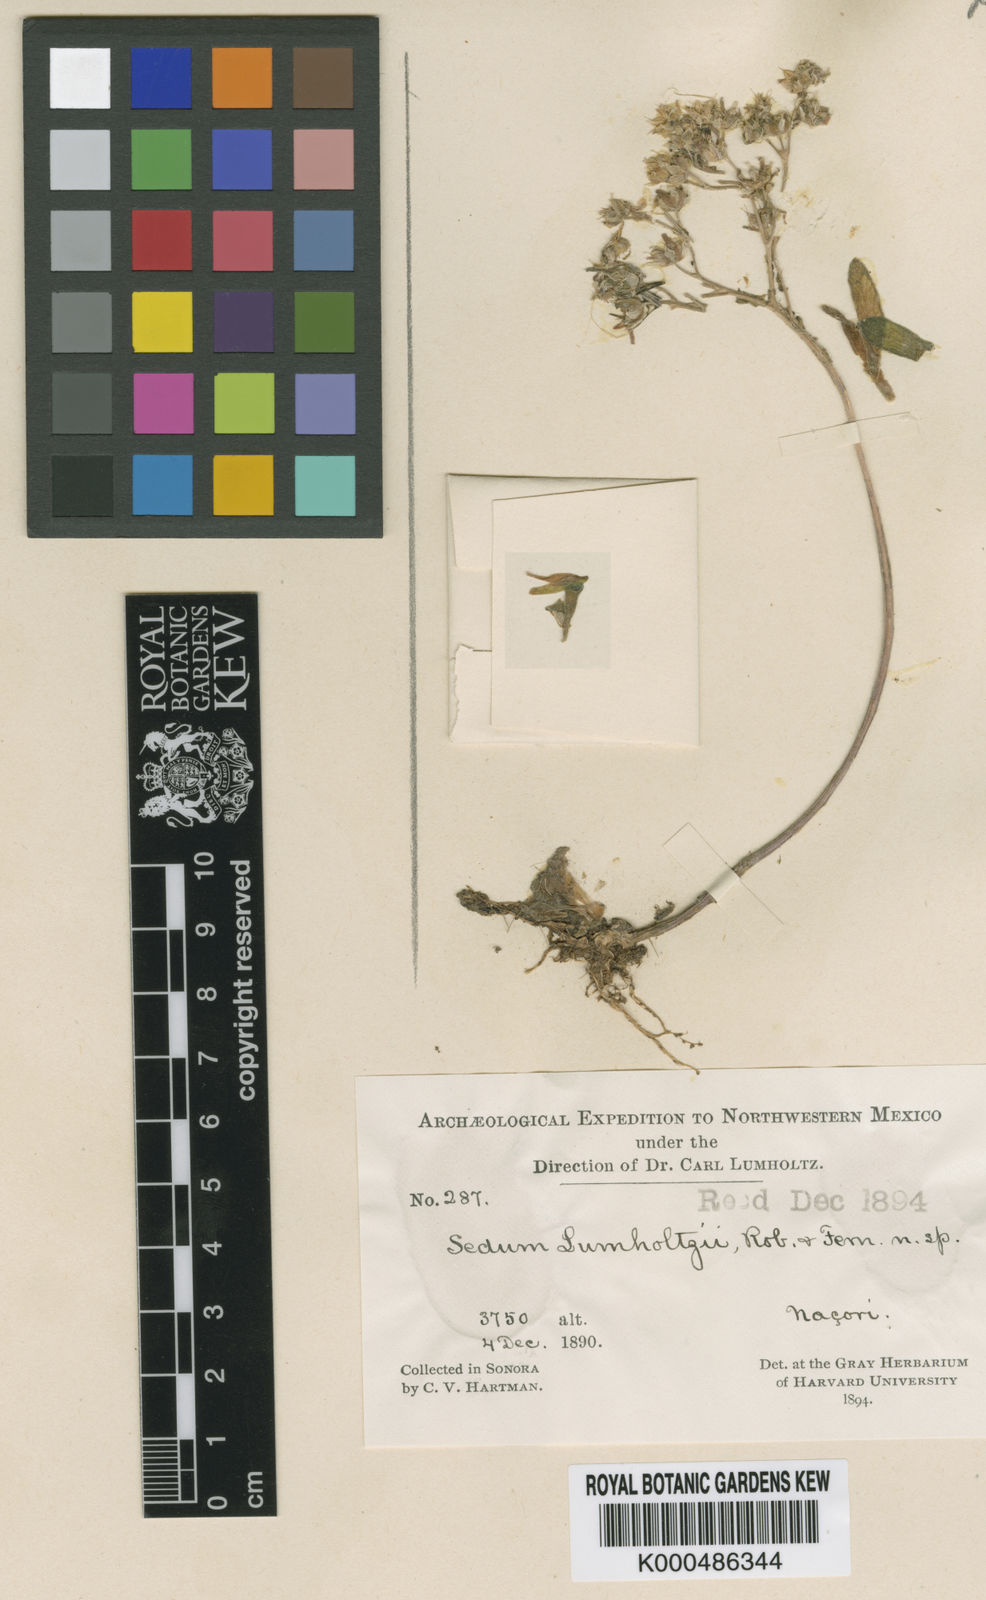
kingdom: Plantae
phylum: Tracheophyta
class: Magnoliopsida
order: Saxifragales
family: Crassulaceae
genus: Sedum
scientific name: Sedum lumholtzii
